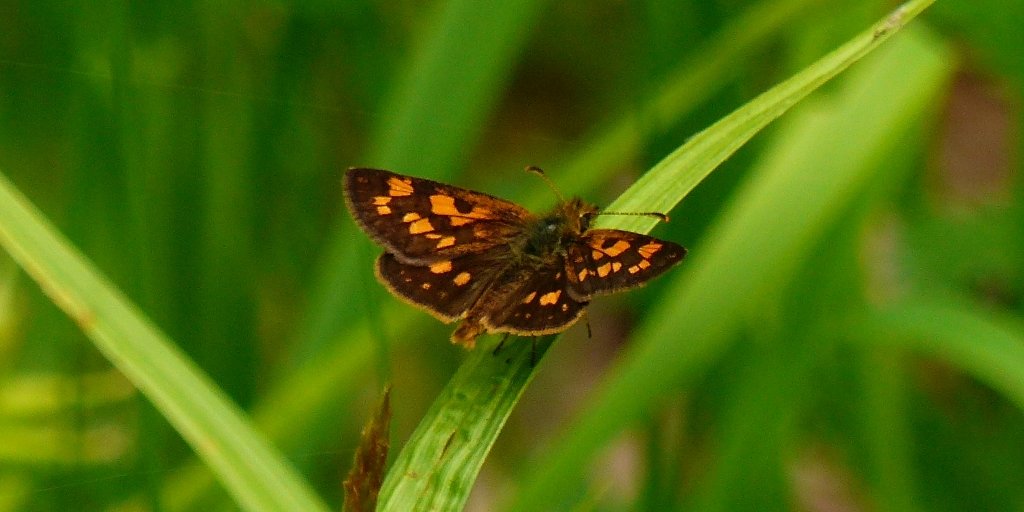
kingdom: Animalia
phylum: Arthropoda
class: Insecta
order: Lepidoptera
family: Hesperiidae
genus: Carterocephalus
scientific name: Carterocephalus palaemon
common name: Chequered Skipper
